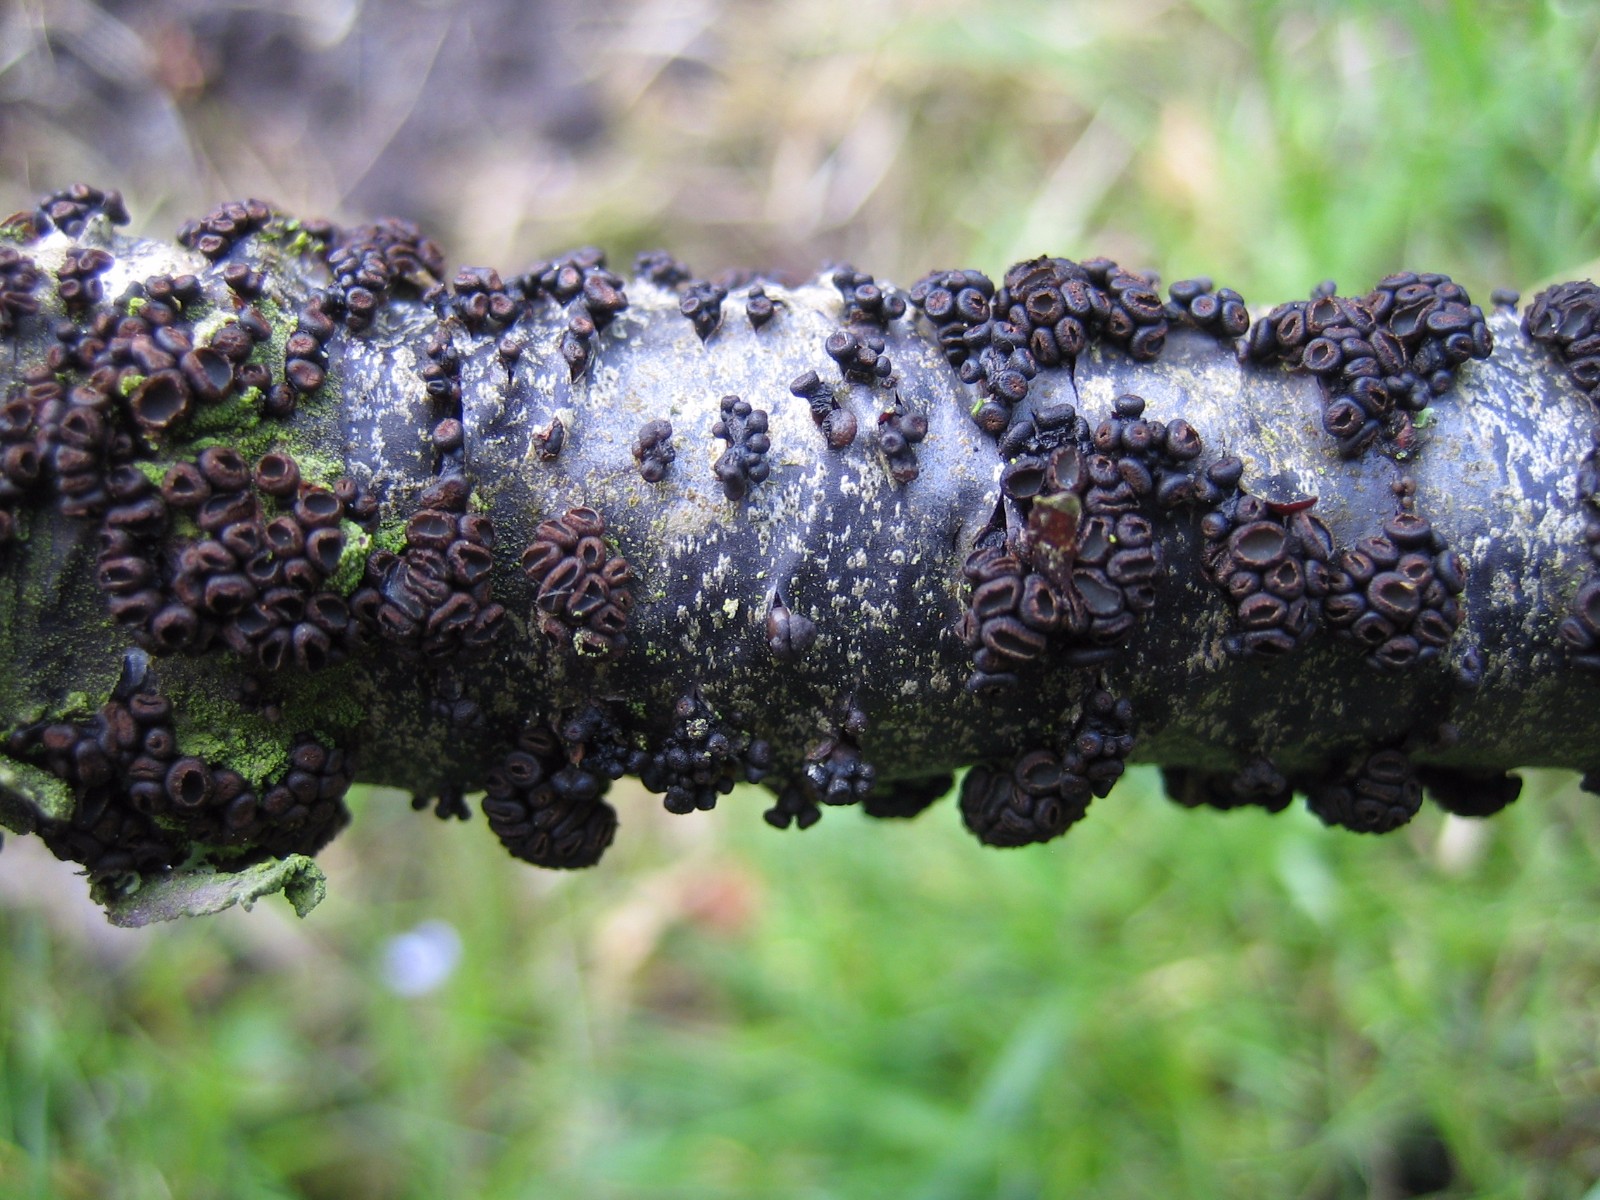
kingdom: Fungi
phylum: Ascomycota
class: Leotiomycetes
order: Helotiales
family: Godroniaceae
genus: Godronia
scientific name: Godronia ribis
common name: ribs-urneskive
